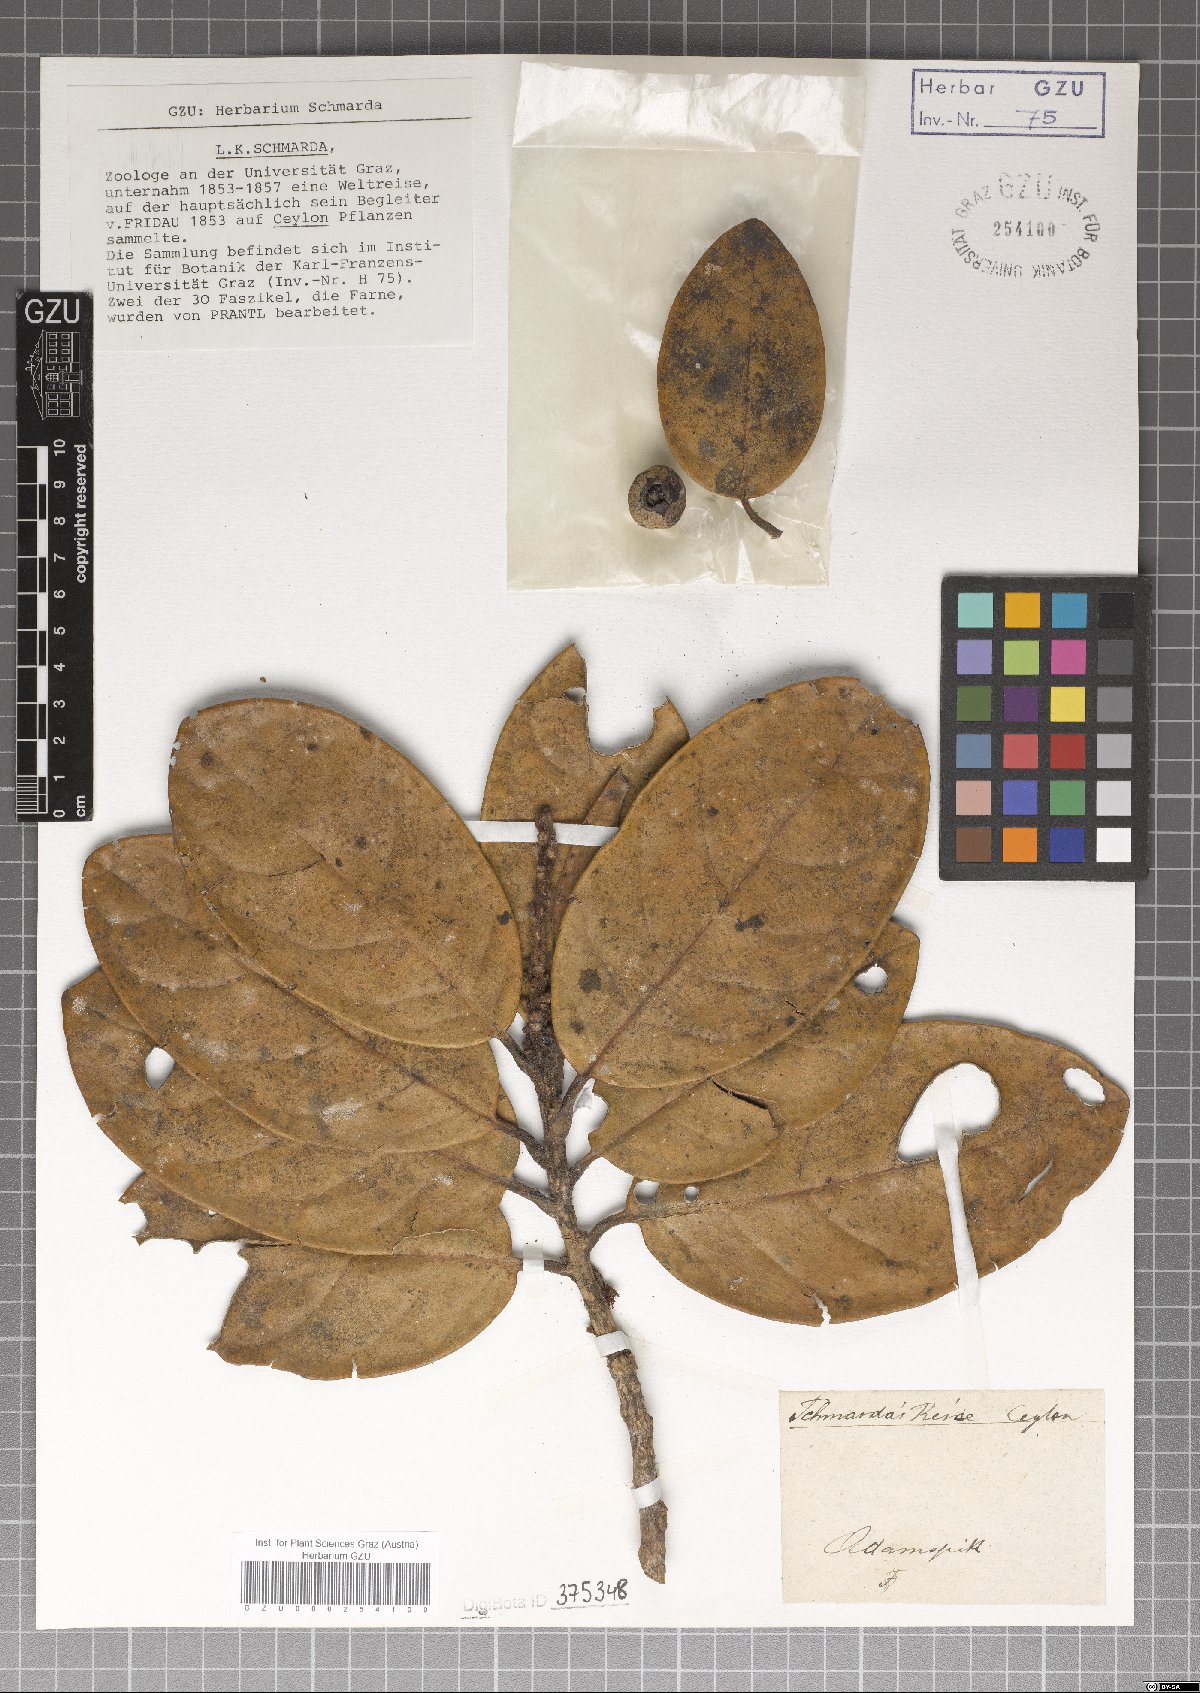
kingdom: Plantae
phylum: Tracheophyta
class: Magnoliopsida
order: Laurales
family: Lauraceae
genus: Litsea
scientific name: Litsea
